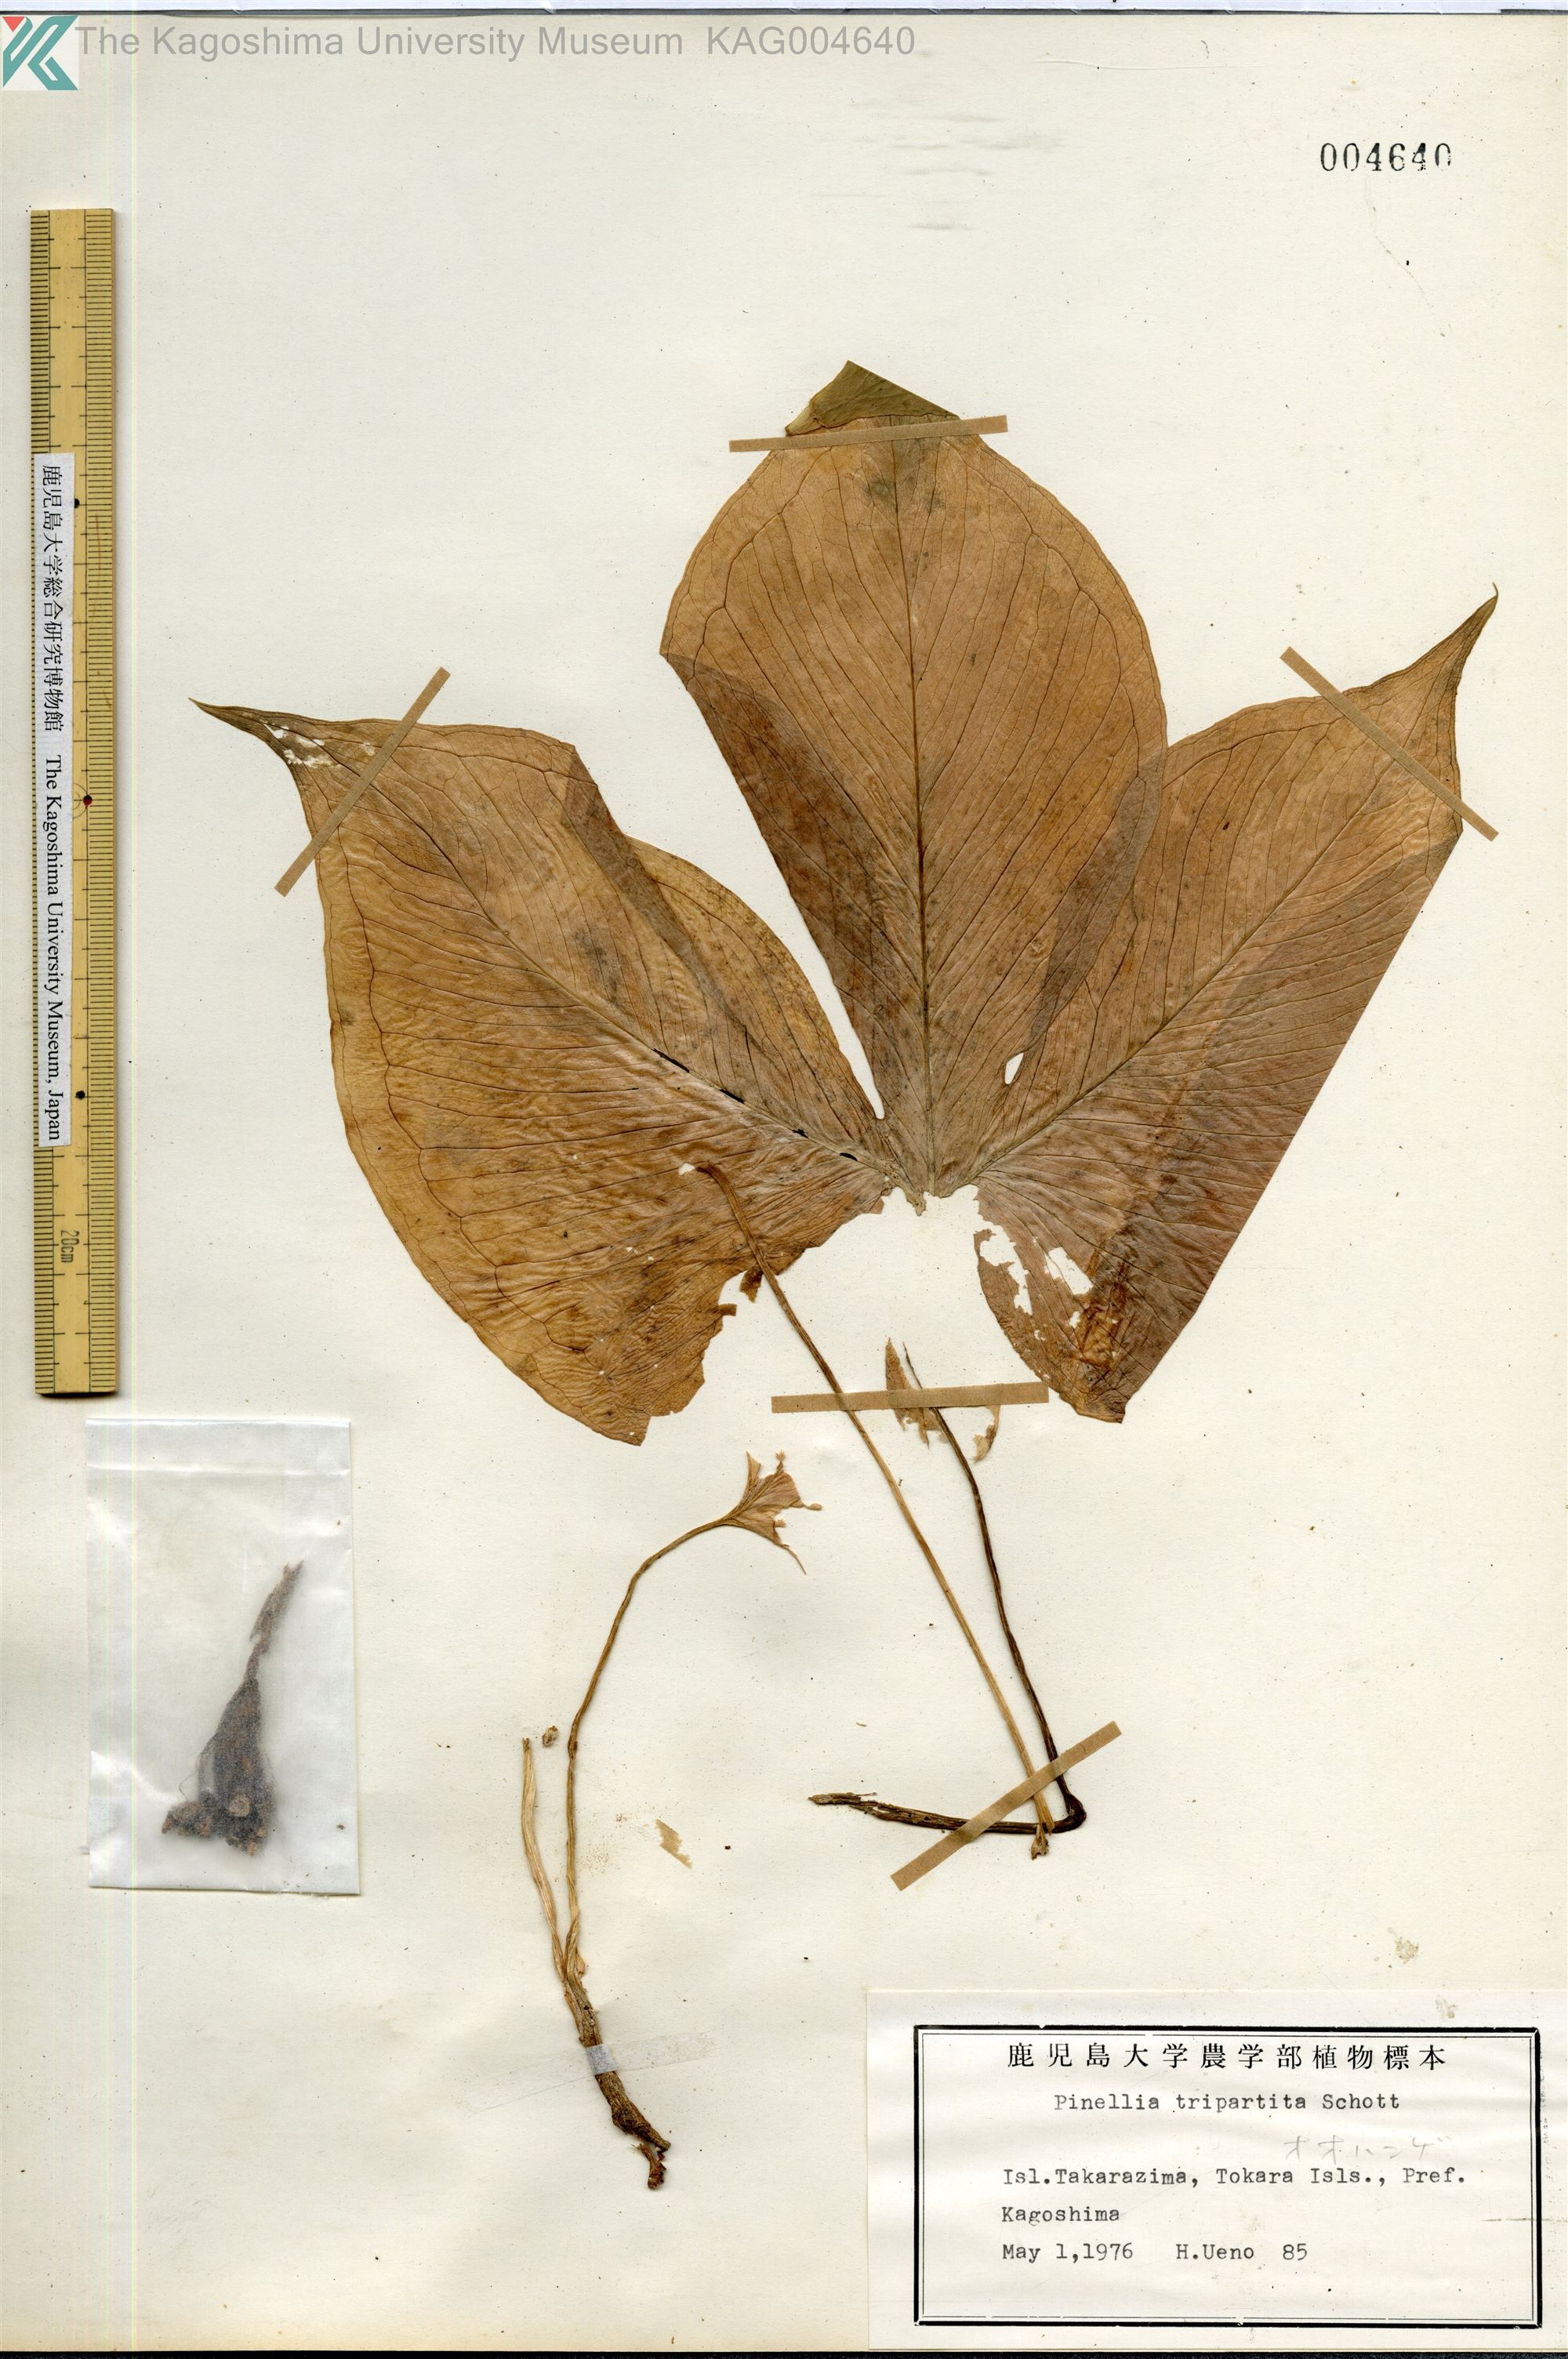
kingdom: Plantae
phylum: Tracheophyta
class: Liliopsida
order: Alismatales
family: Araceae
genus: Pinellia
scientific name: Pinellia tripartita
